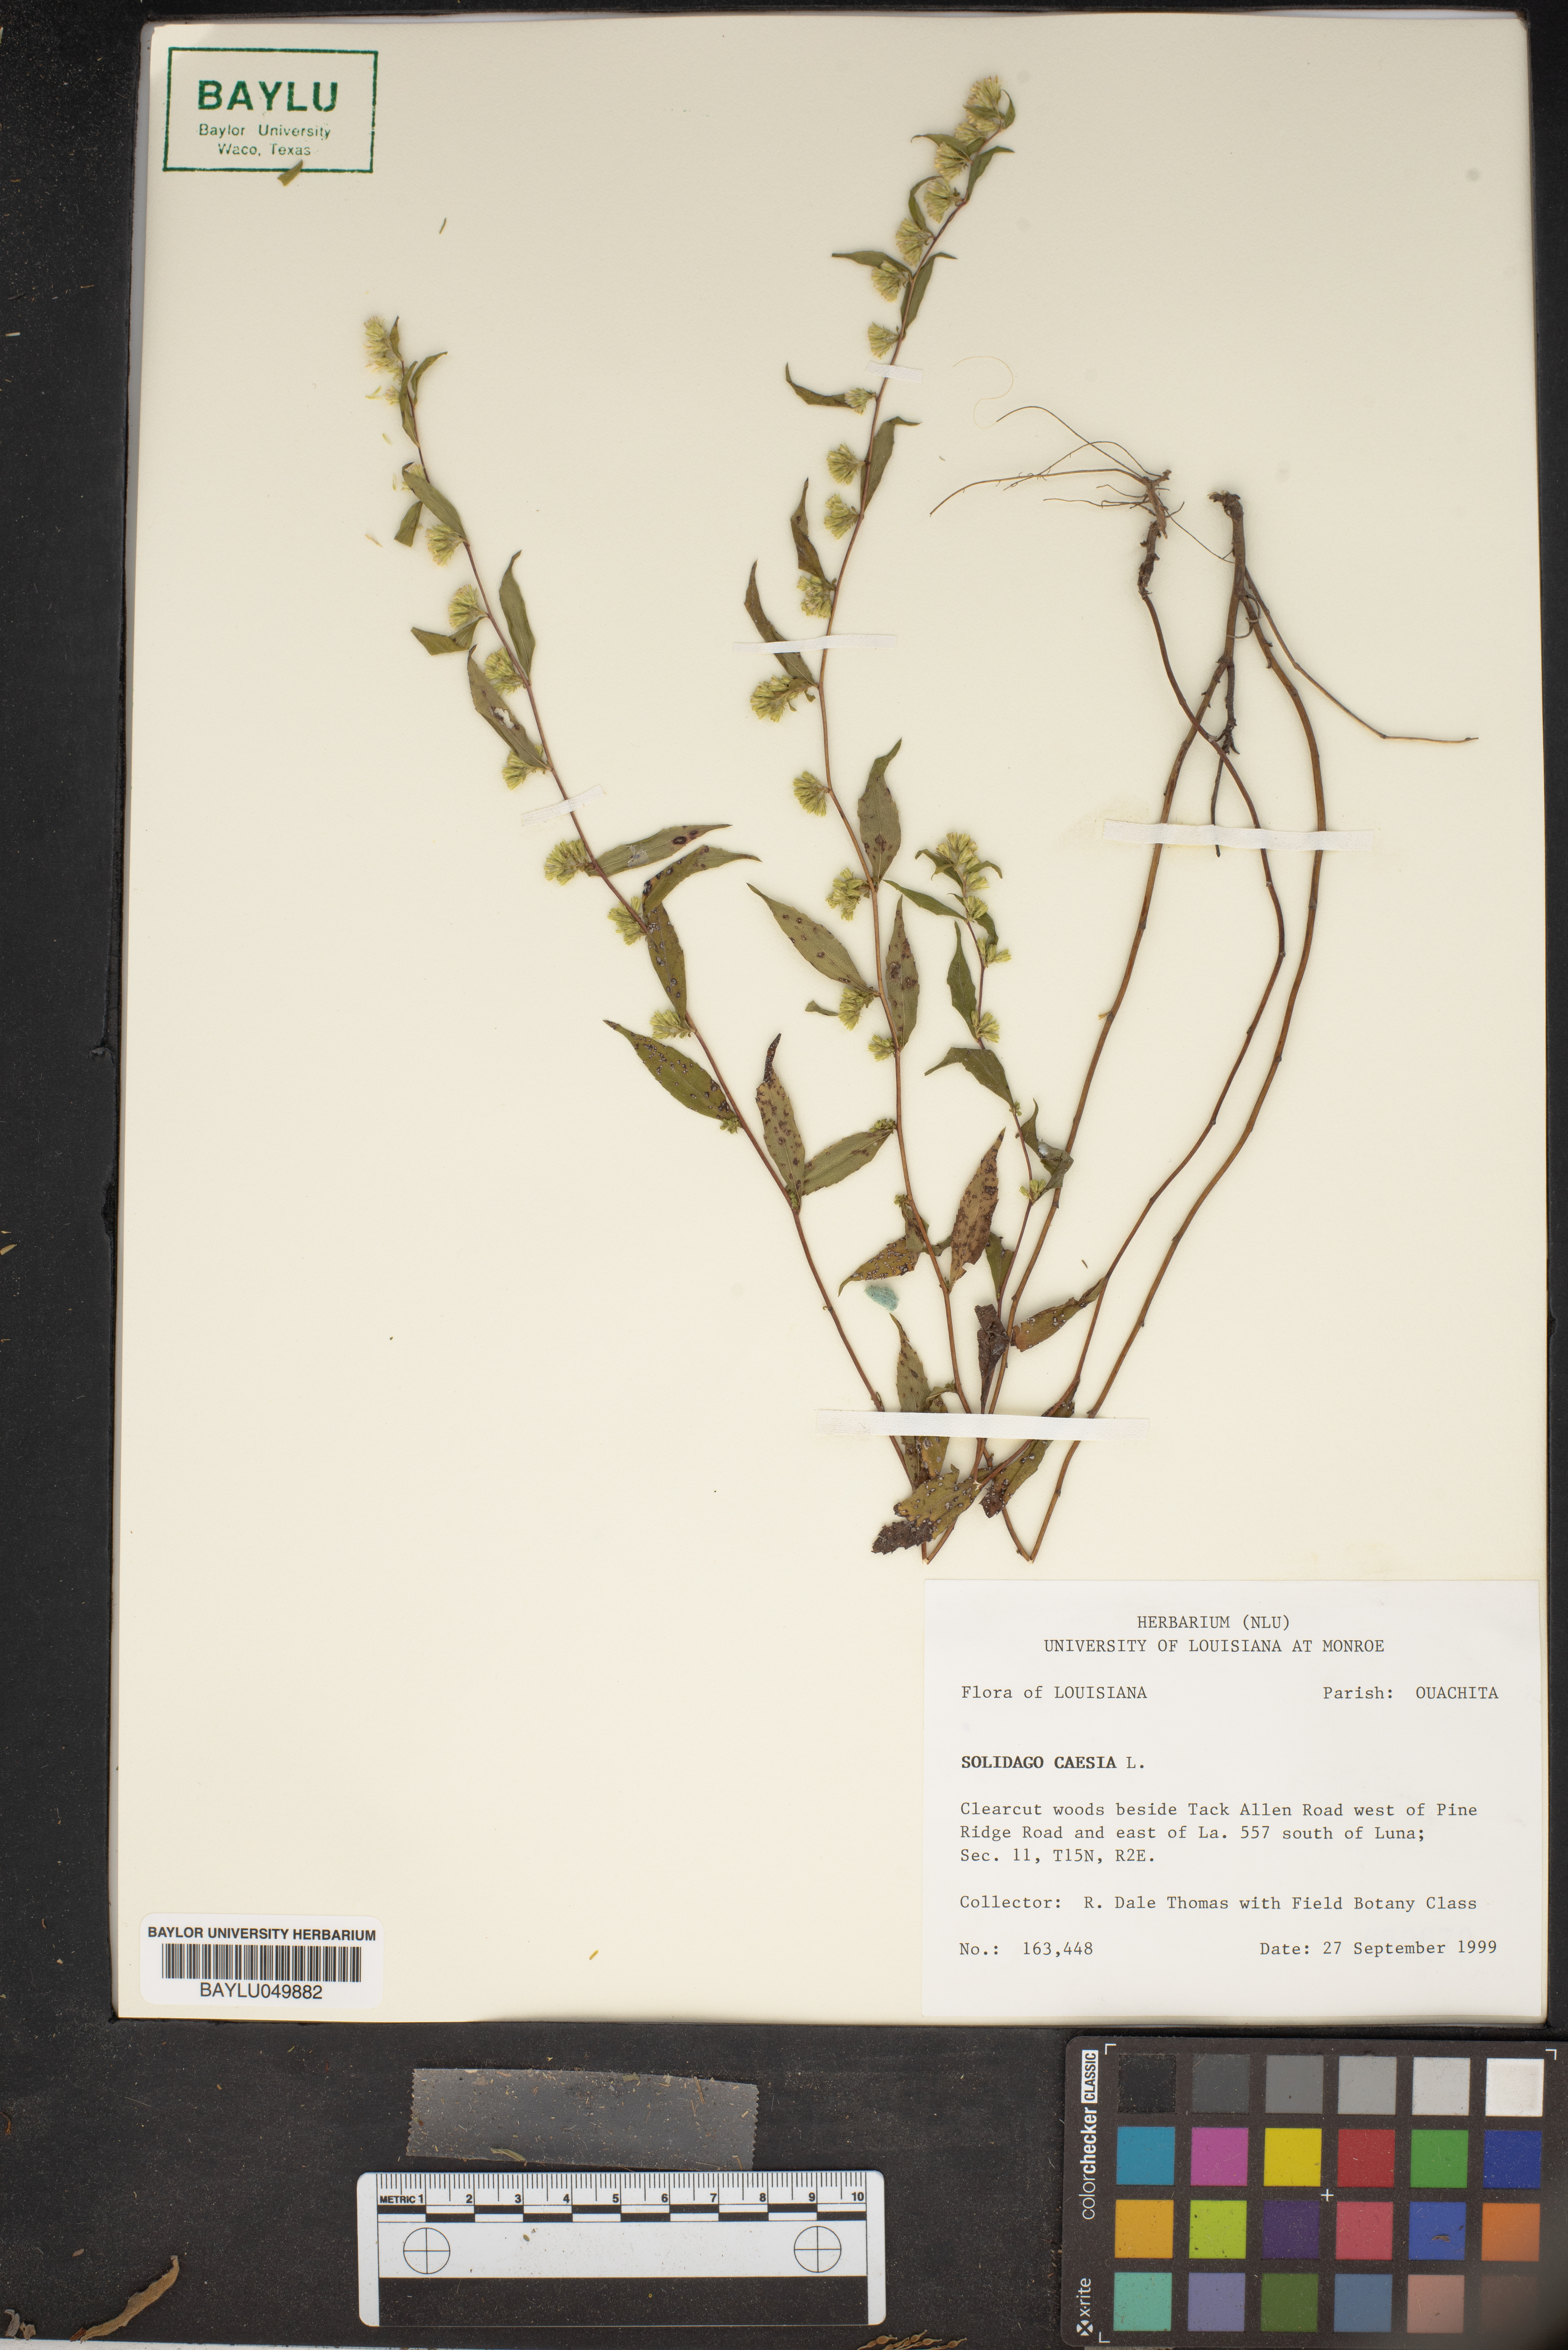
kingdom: Plantae
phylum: Tracheophyta
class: Magnoliopsida
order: Asterales
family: Asteraceae
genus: Solidago
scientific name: Solidago caesia
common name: Woodland goldenrod
